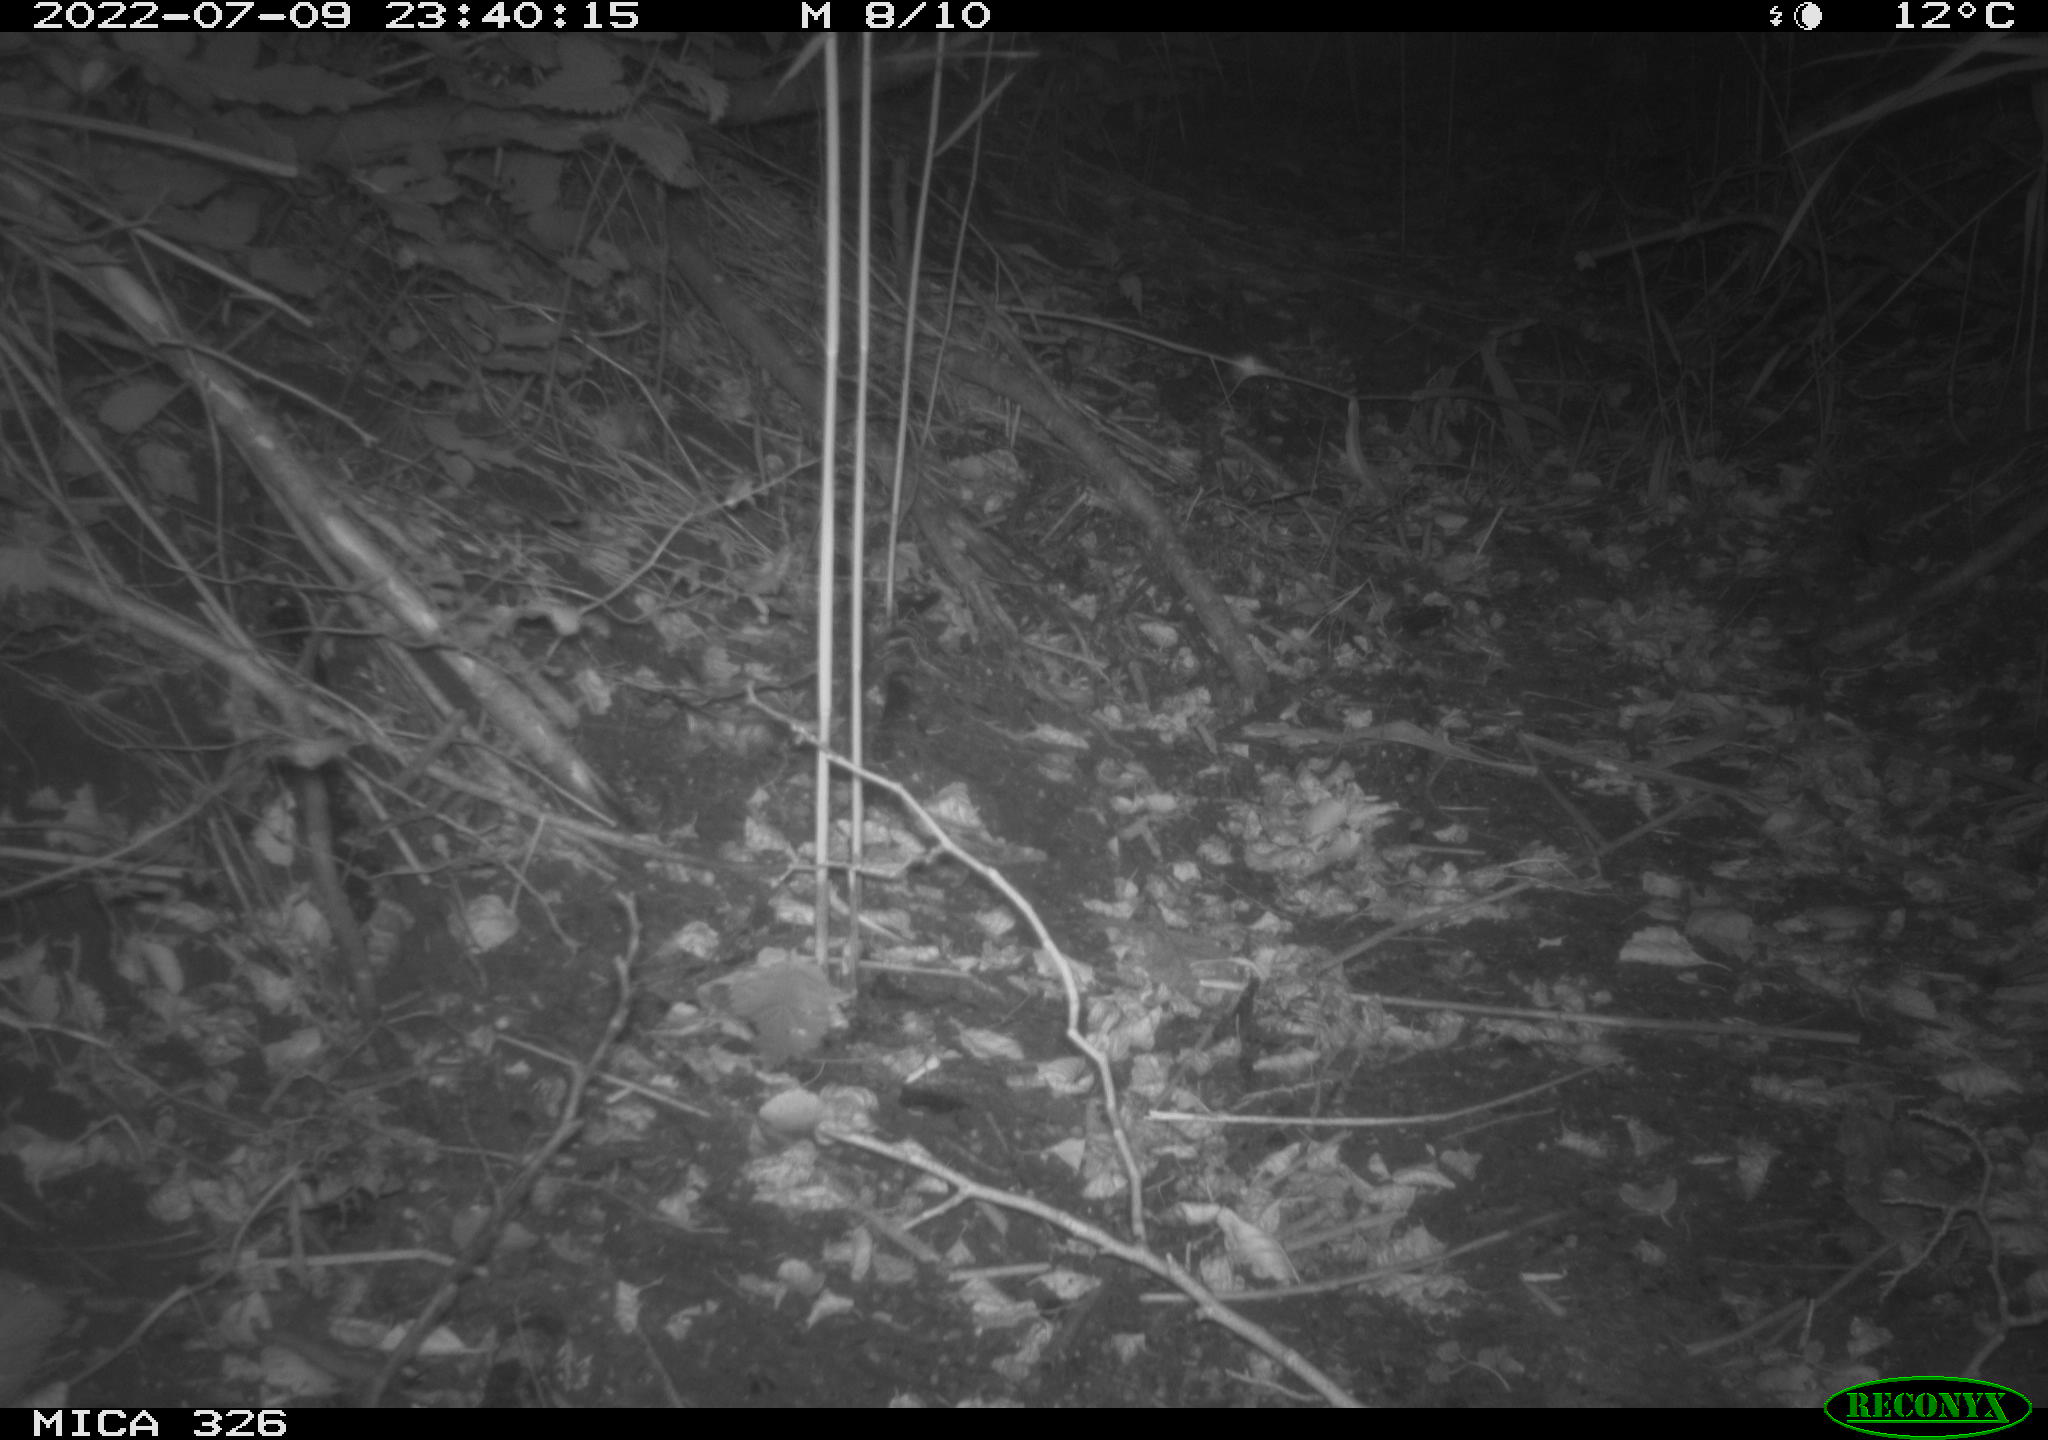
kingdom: Animalia
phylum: Chordata
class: Mammalia
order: Rodentia
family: Muridae
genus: Rattus
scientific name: Rattus norvegicus
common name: Brown rat
